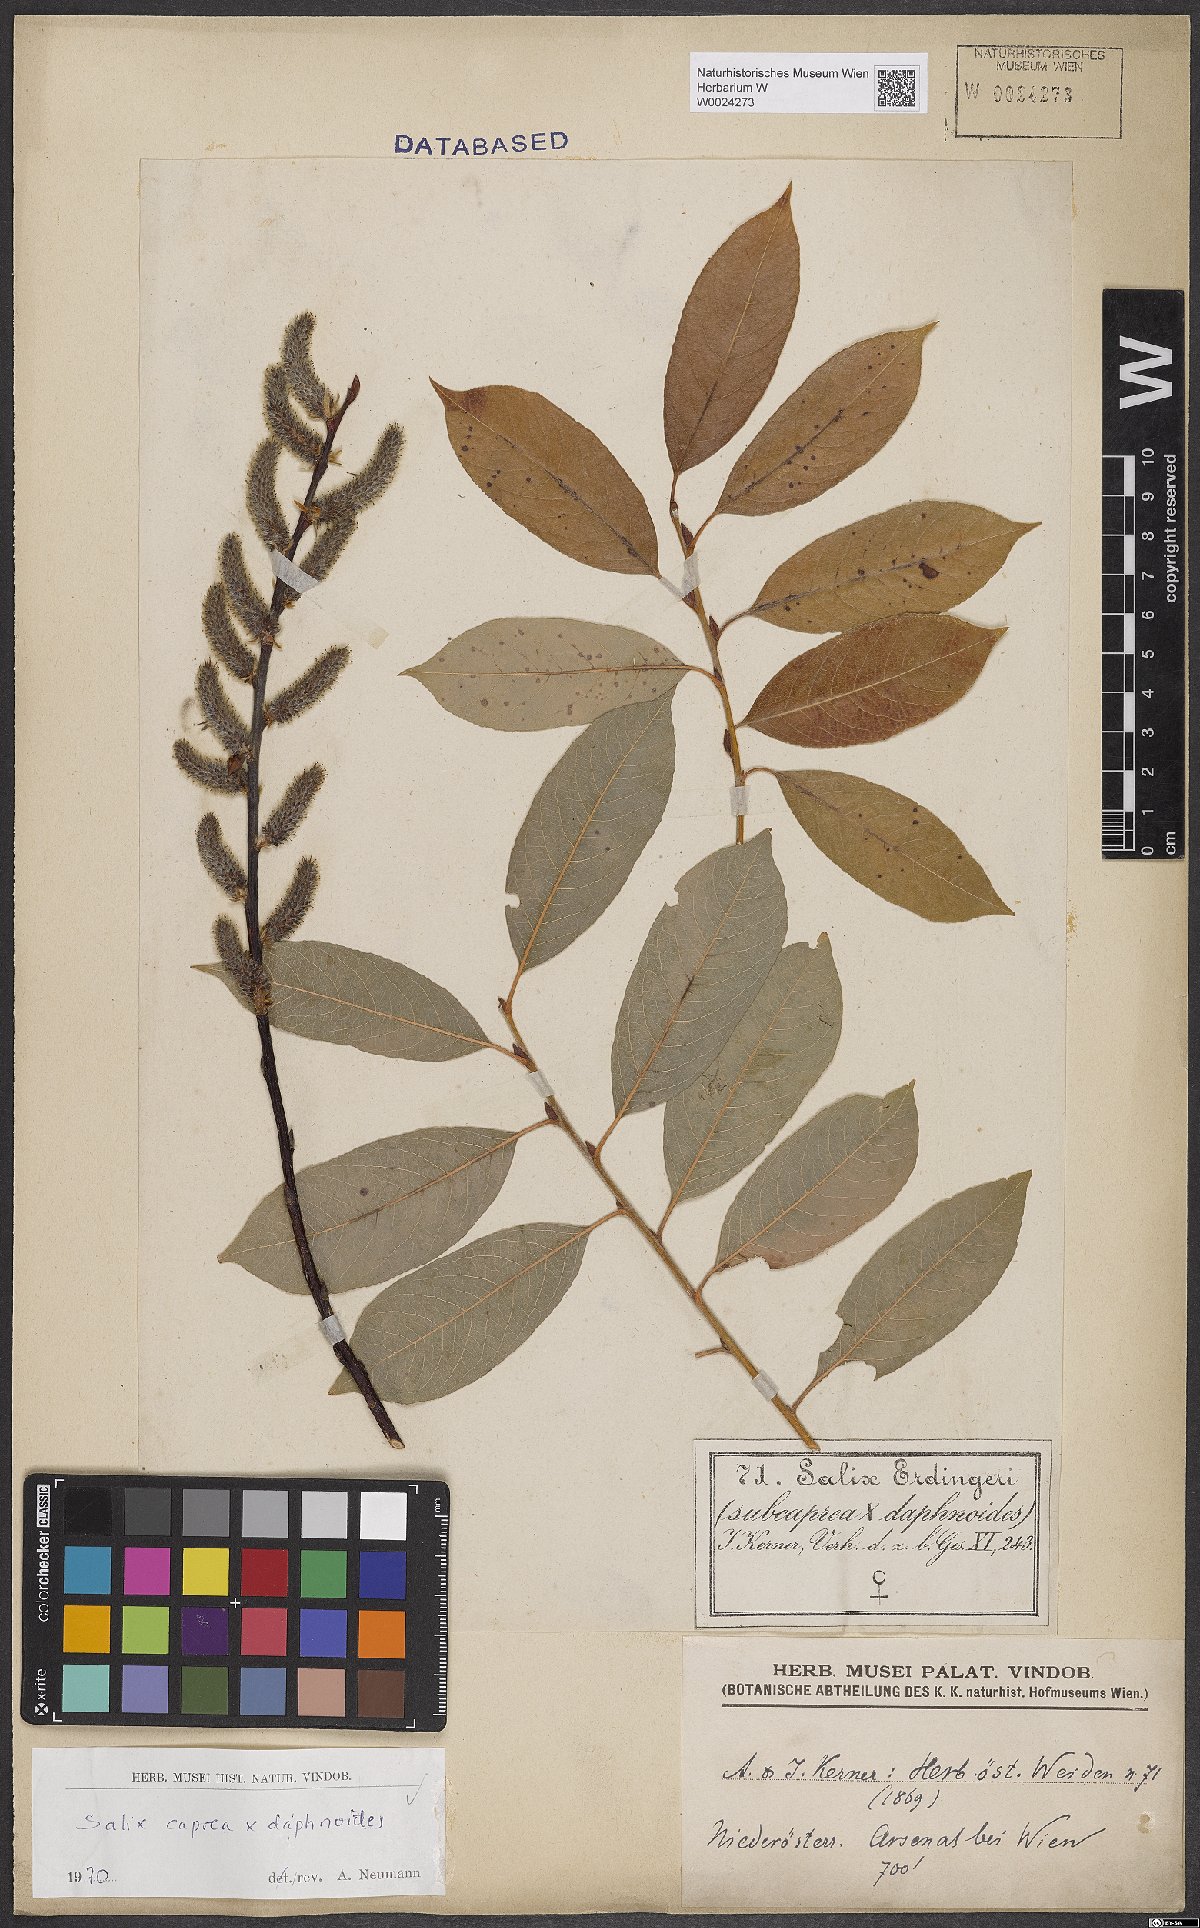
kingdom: Plantae
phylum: Tracheophyta
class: Magnoliopsida
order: Malpighiales
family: Salicaceae
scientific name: Salicaceae
